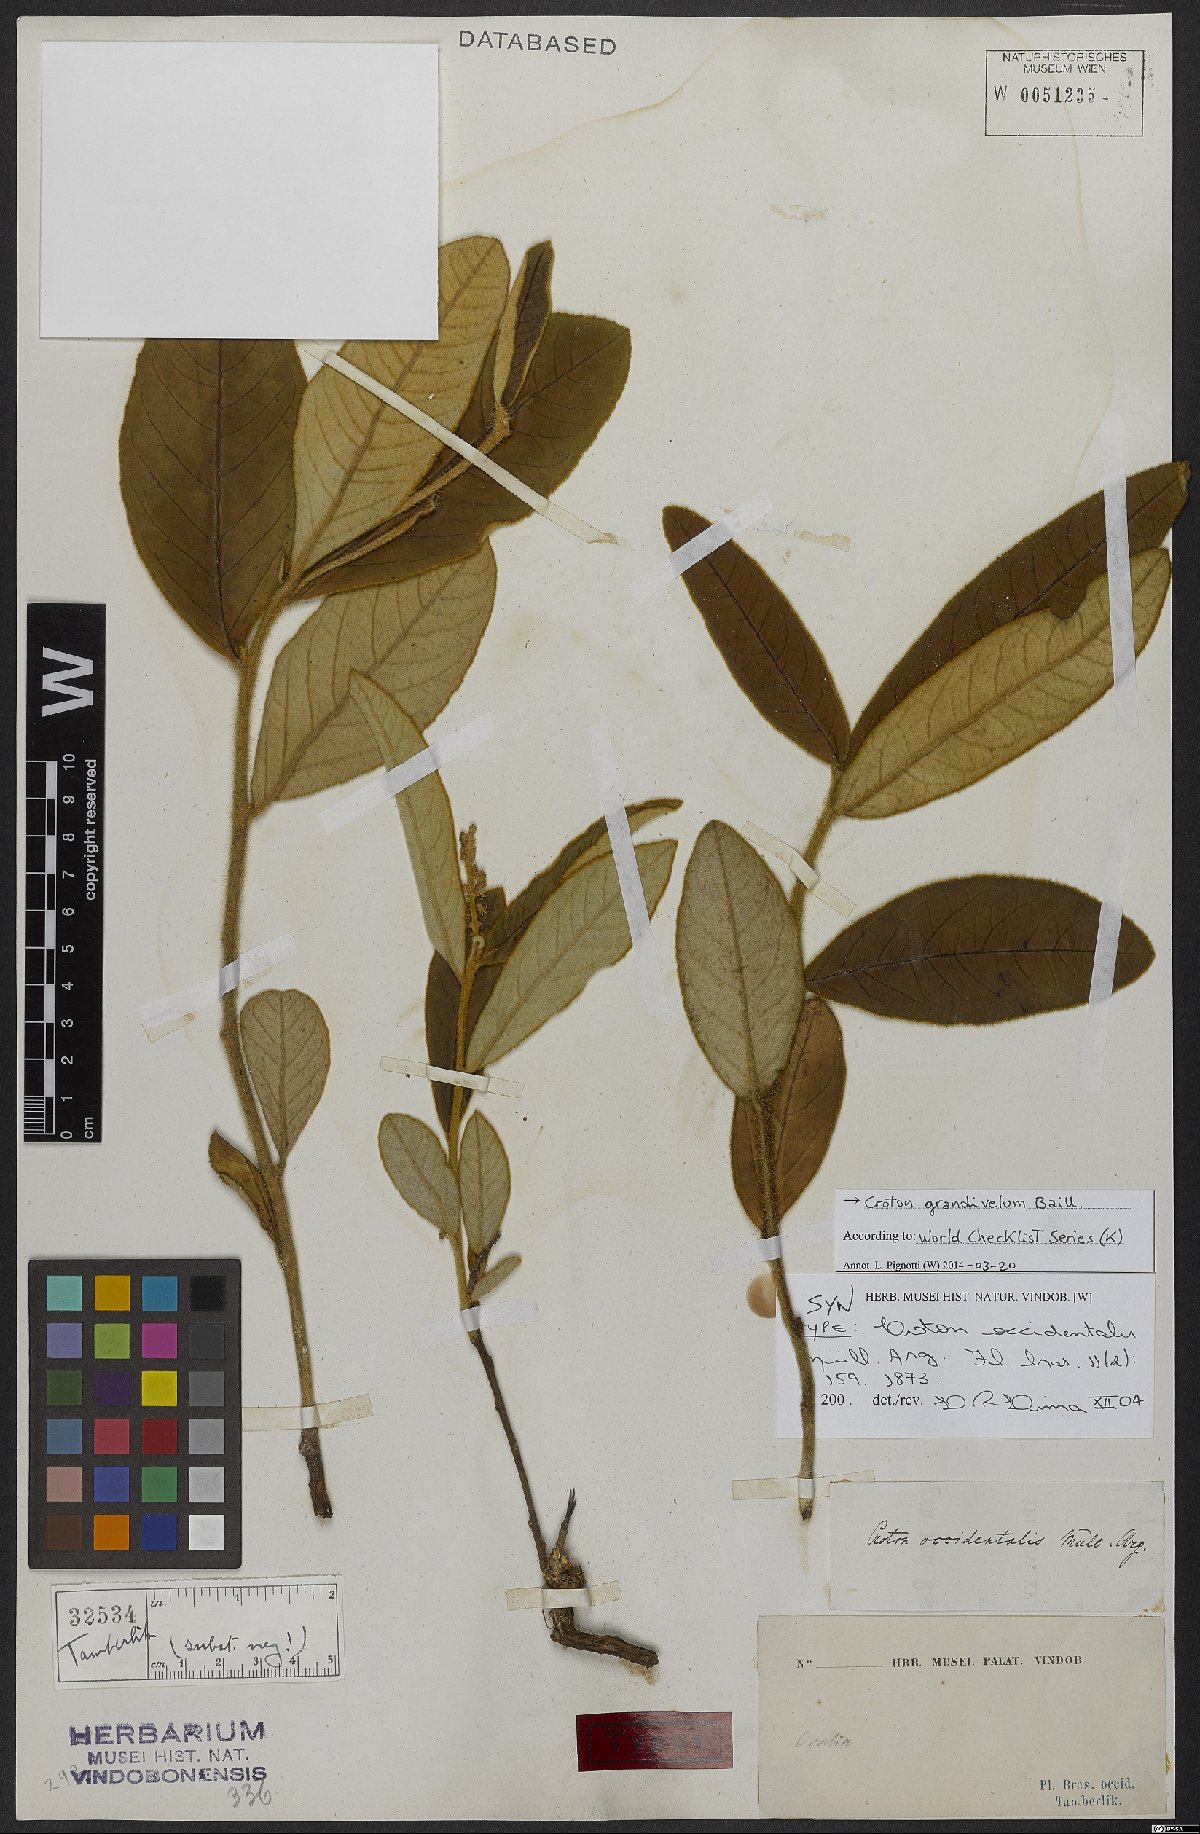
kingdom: Plantae
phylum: Tracheophyta
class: Magnoliopsida
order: Malpighiales
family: Euphorbiaceae
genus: Croton
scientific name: Croton grandivelum
